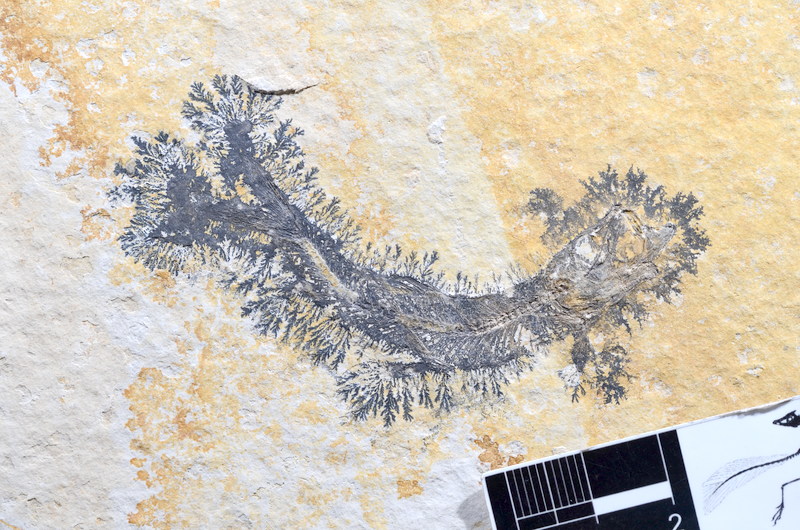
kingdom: Animalia
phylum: Chordata
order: Salmoniformes
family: Orthogonikleithridae
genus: Leptolepides
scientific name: Leptolepides sprattiformis
